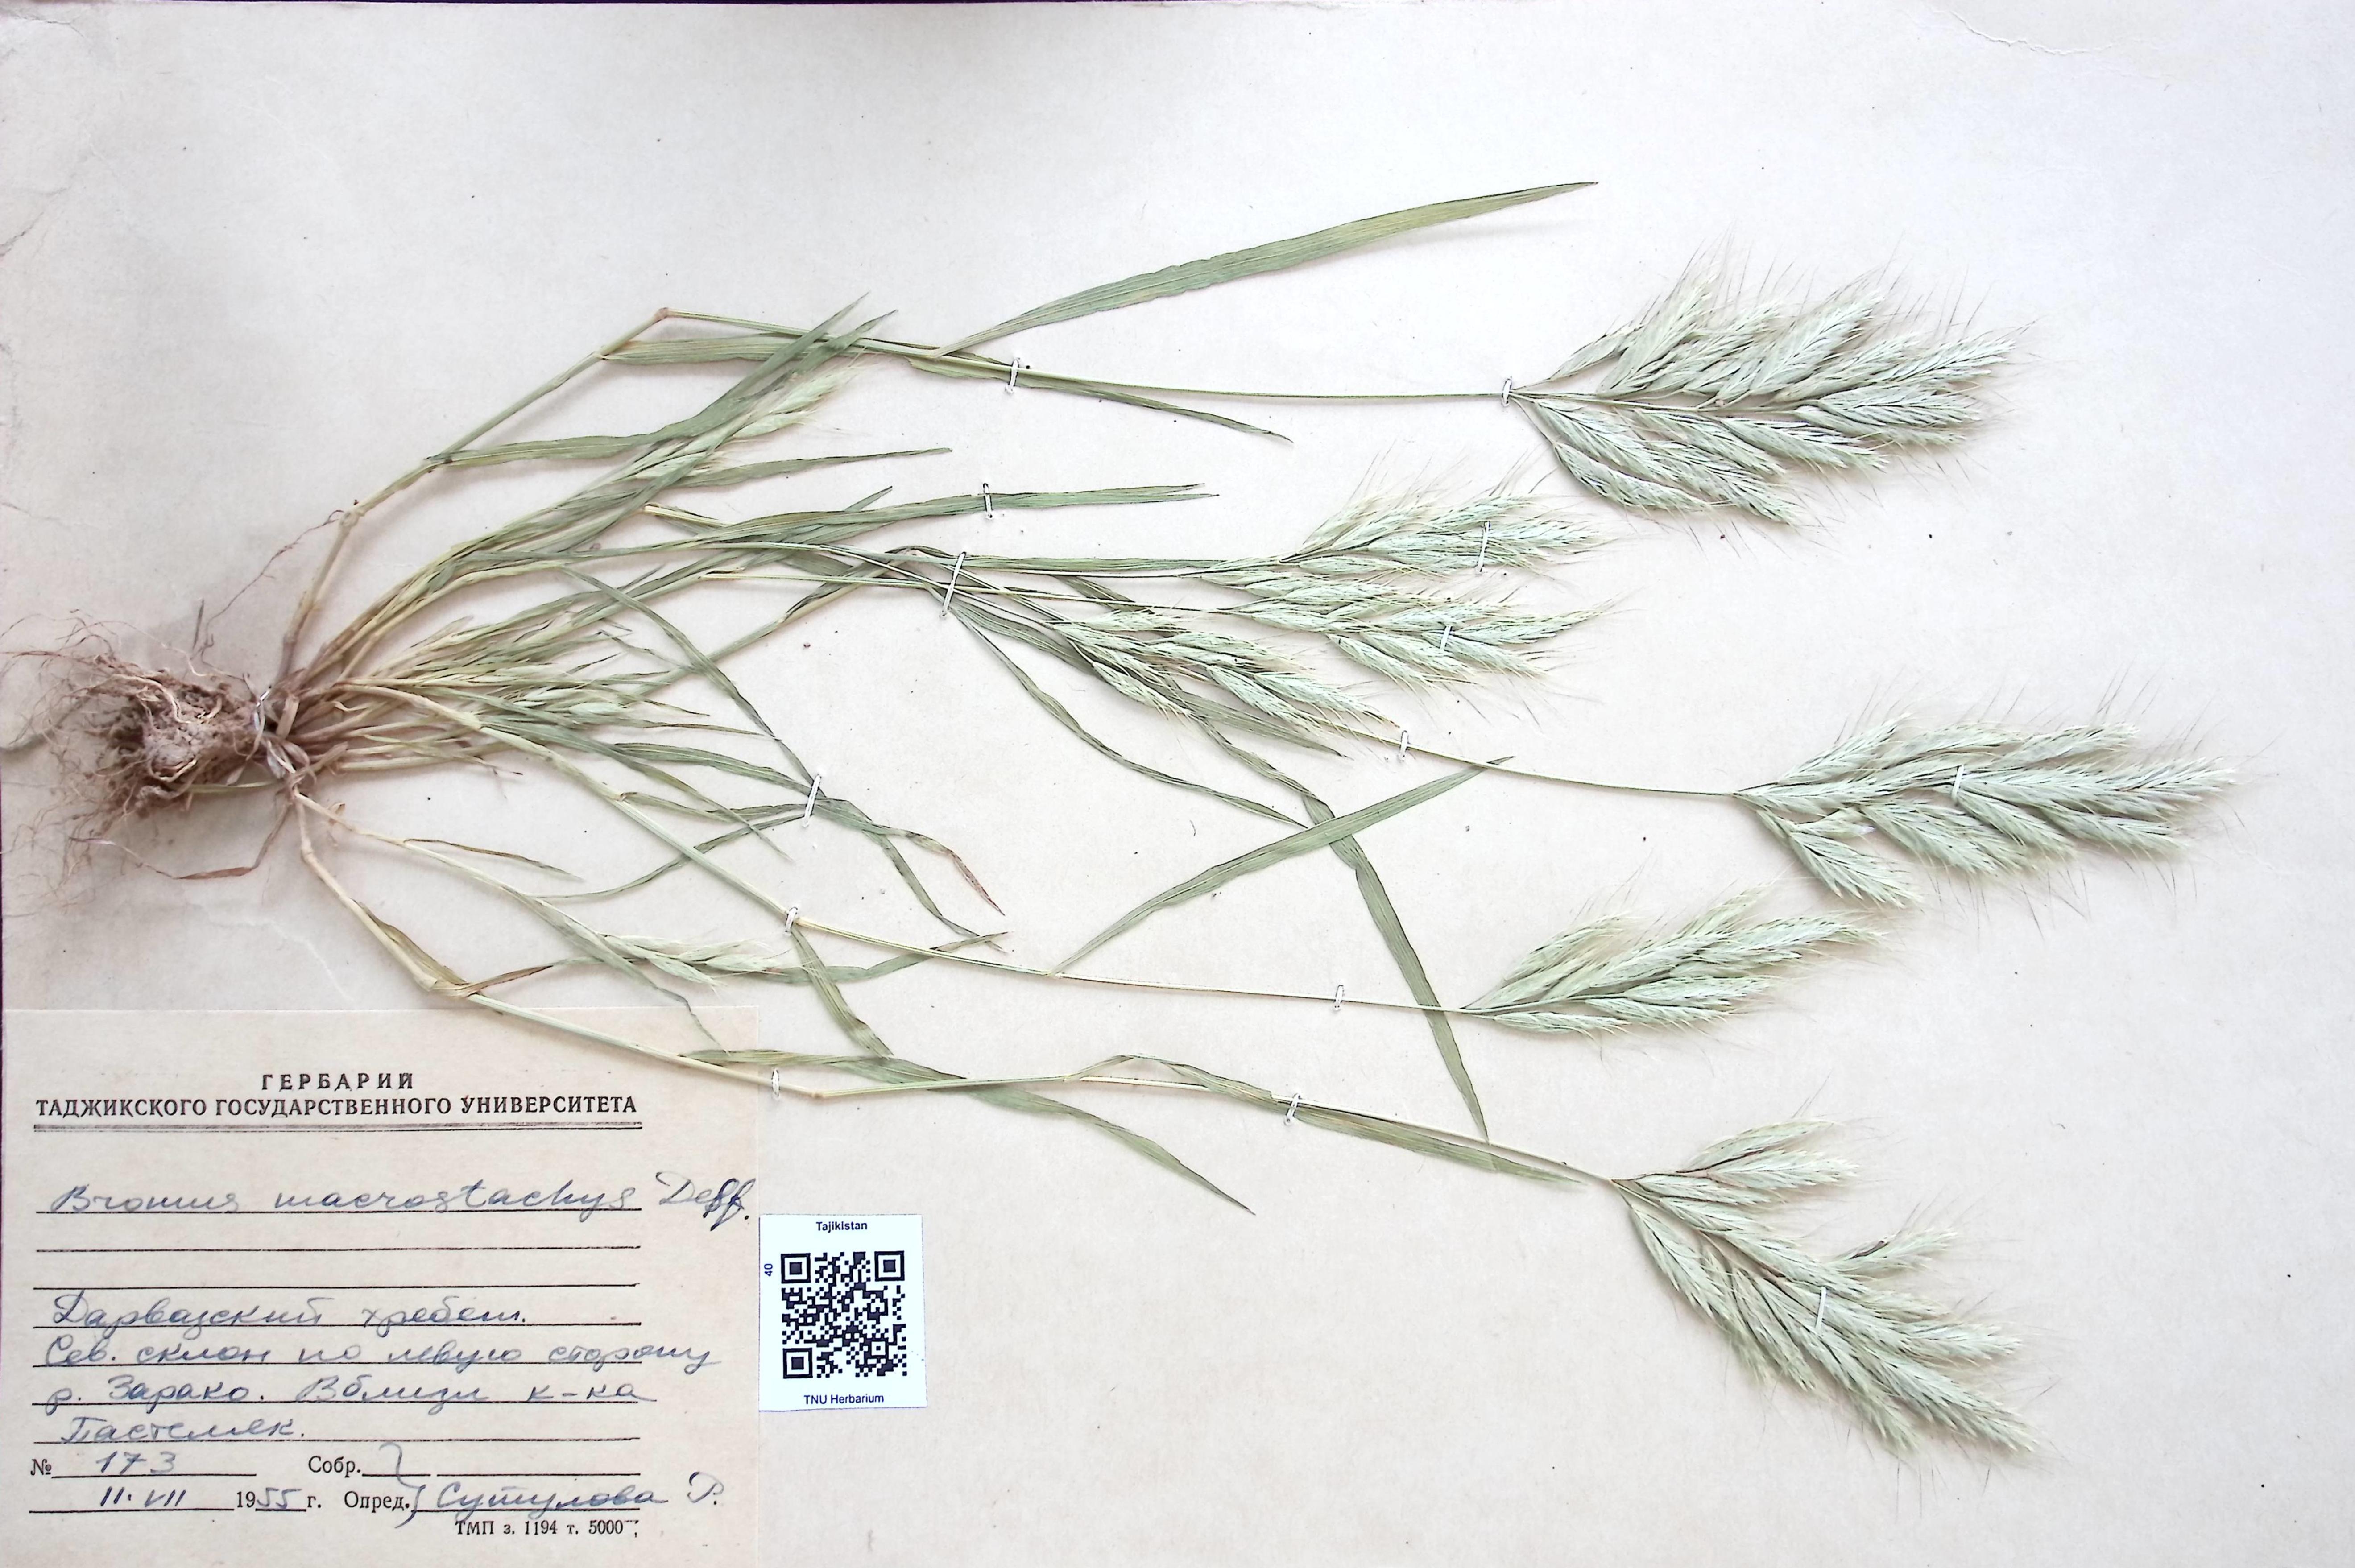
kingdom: Plantae
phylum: Tracheophyta
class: Liliopsida
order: Poales
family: Poaceae
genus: Bromus
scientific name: Bromus lanceolatus
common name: Mediterranean brome
